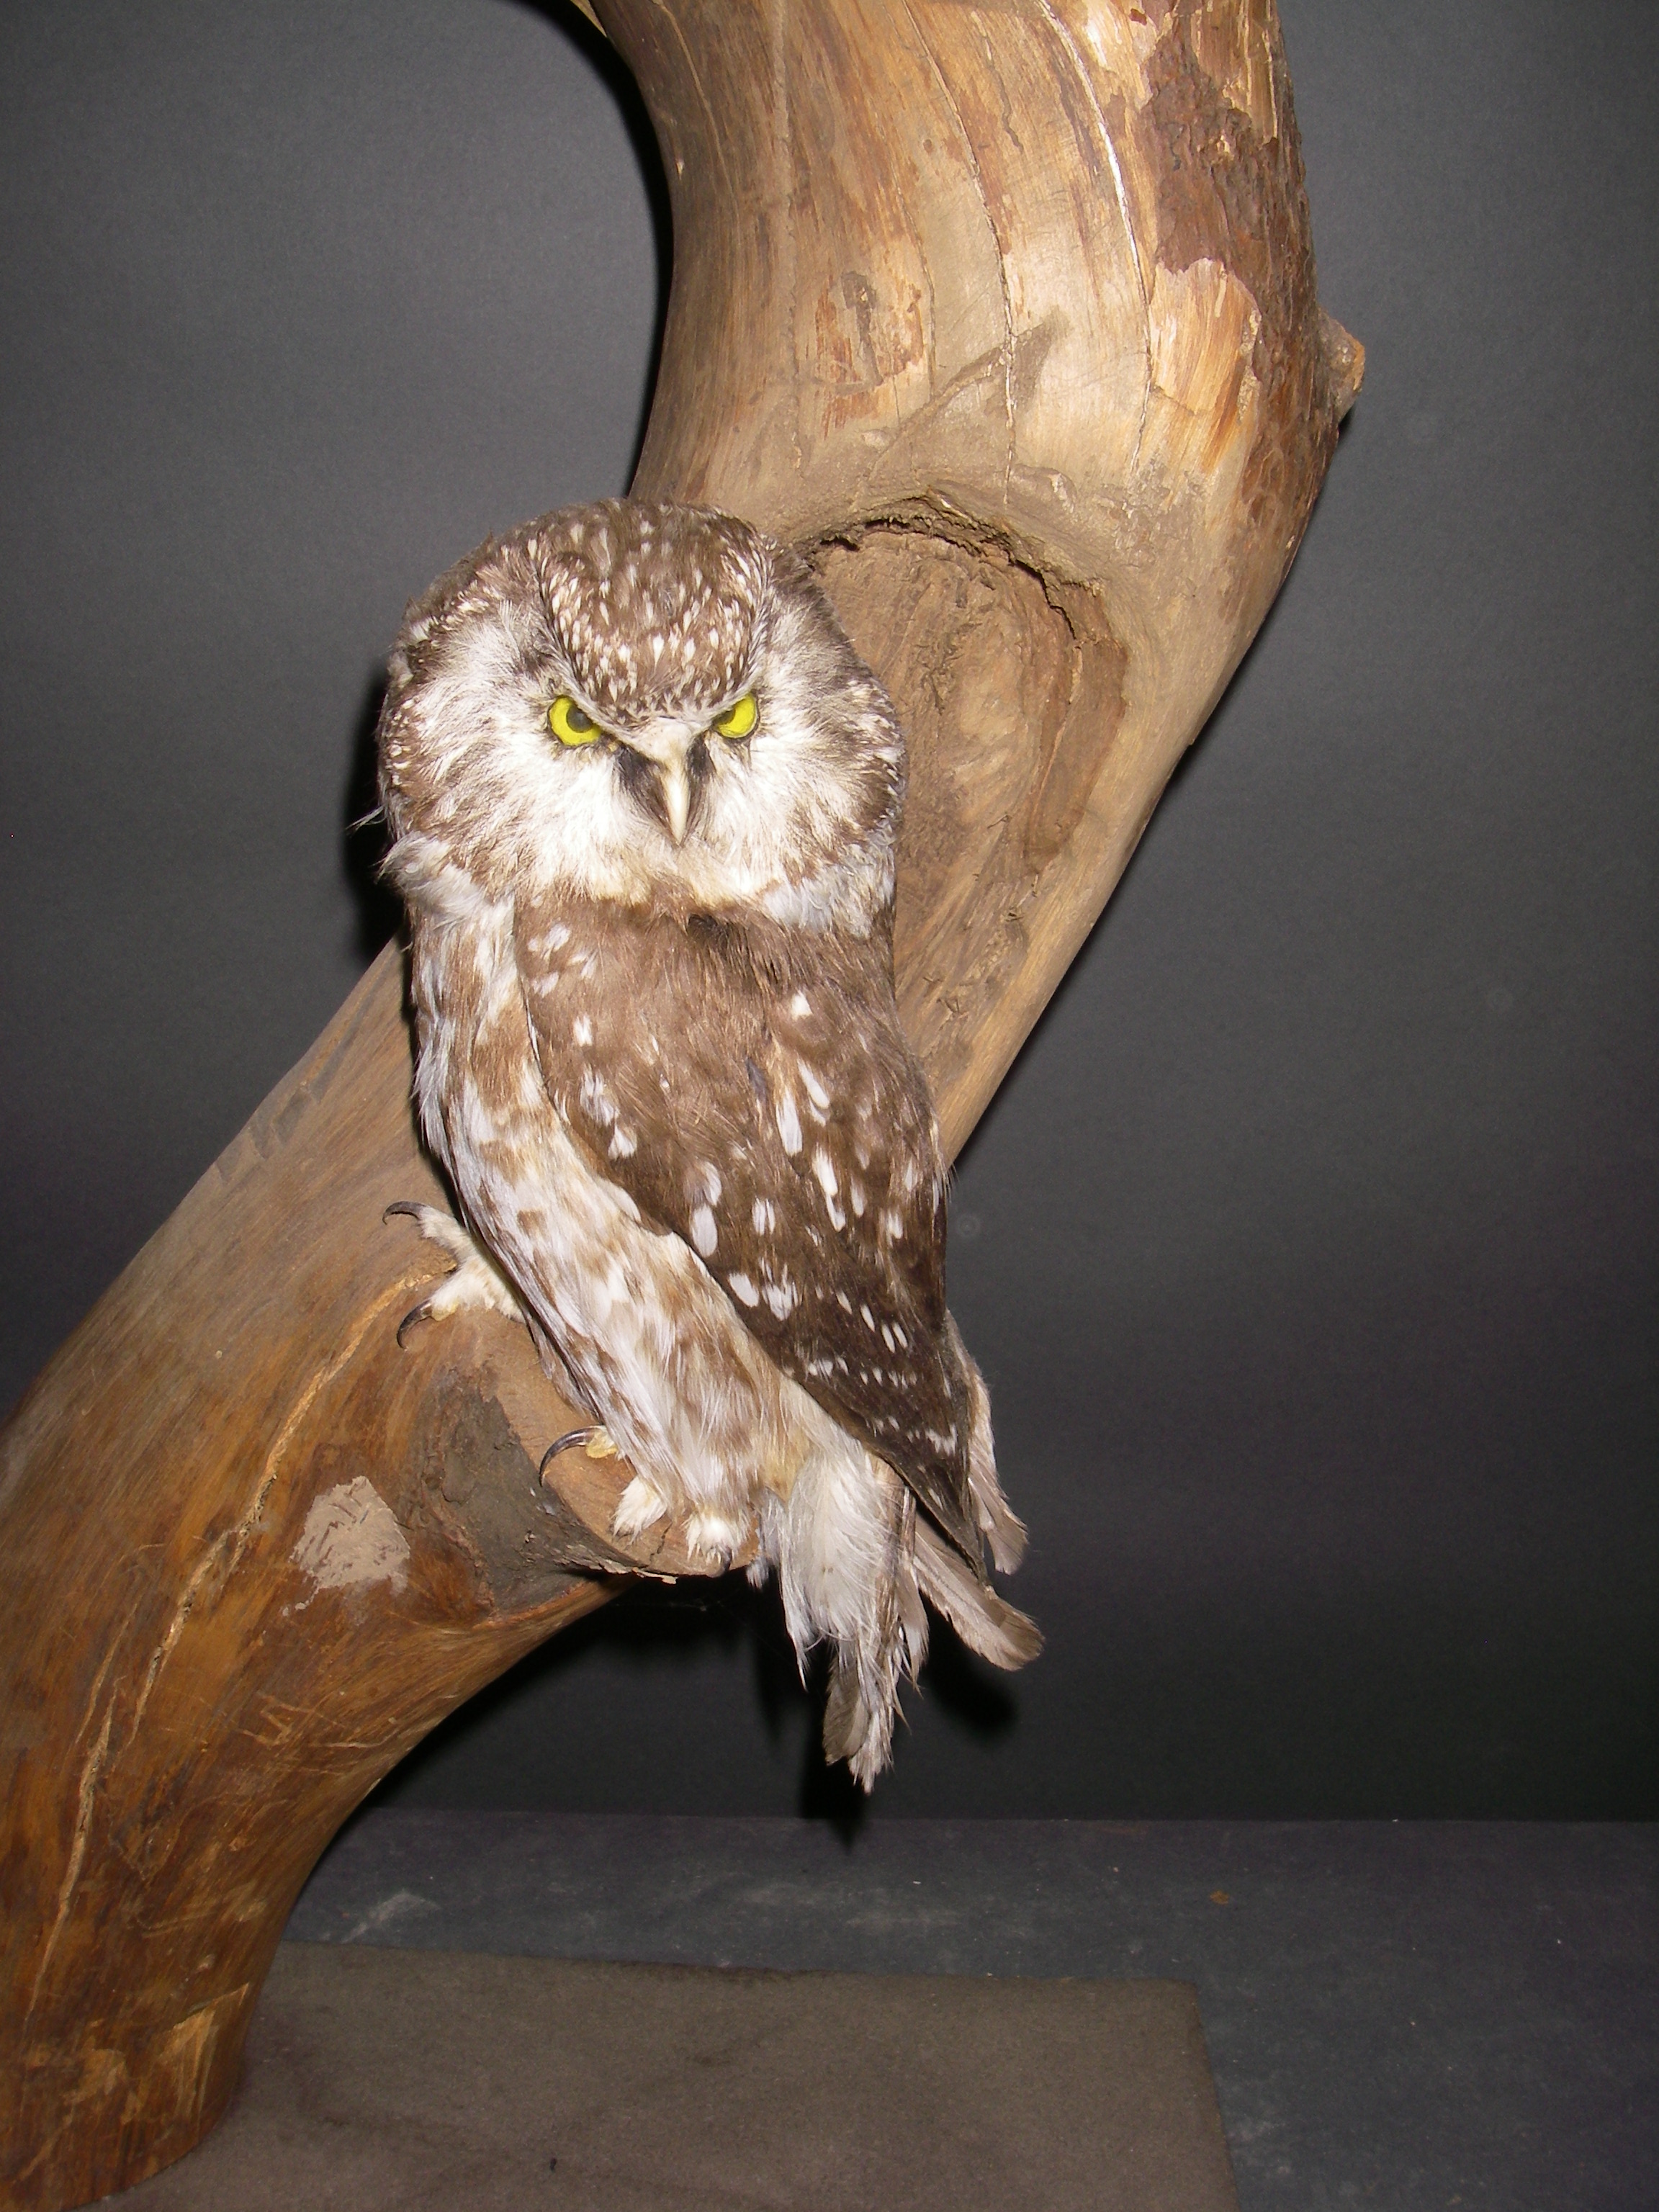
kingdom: Animalia
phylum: Chordata
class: Aves
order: Strigiformes
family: Strigidae
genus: Aegolius
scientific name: Aegolius funereus
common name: Boreal owl
